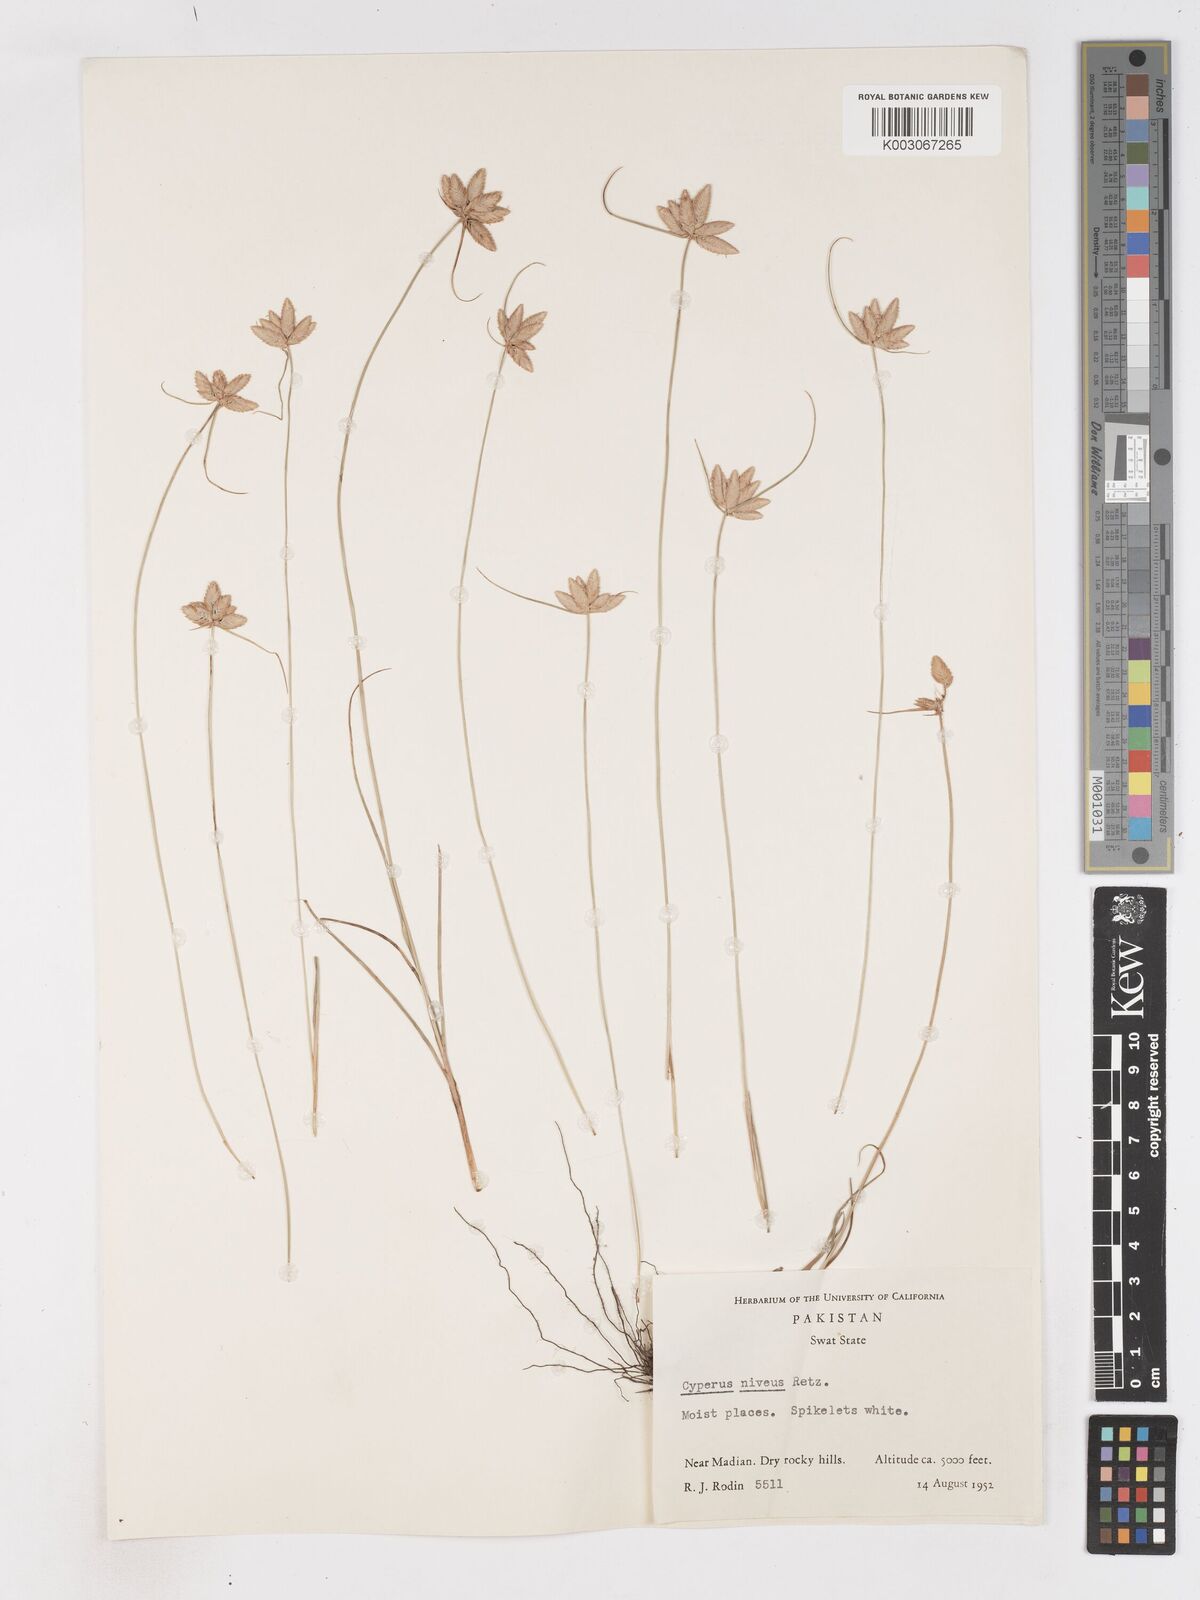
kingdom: Plantae
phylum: Tracheophyta
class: Liliopsida
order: Poales
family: Cyperaceae
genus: Cyperus
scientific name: Cyperus niveus
